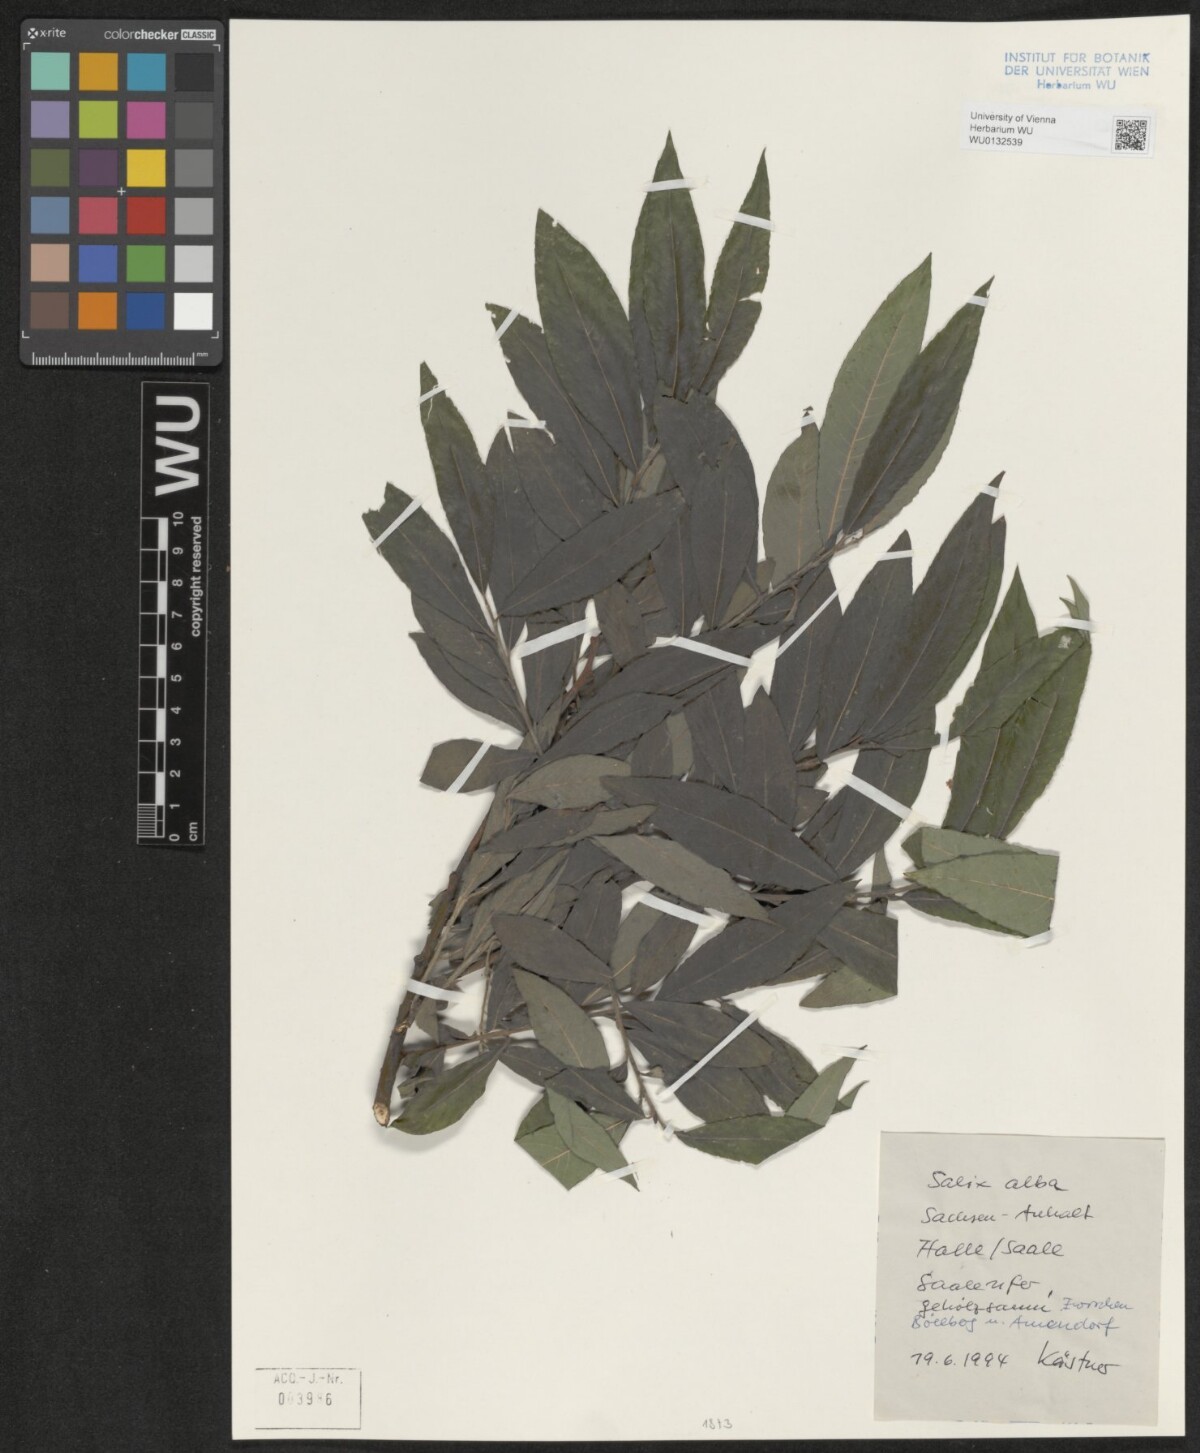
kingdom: Plantae
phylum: Tracheophyta
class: Magnoliopsida
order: Malpighiales
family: Salicaceae
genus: Salix
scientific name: Salix alba
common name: White willow
